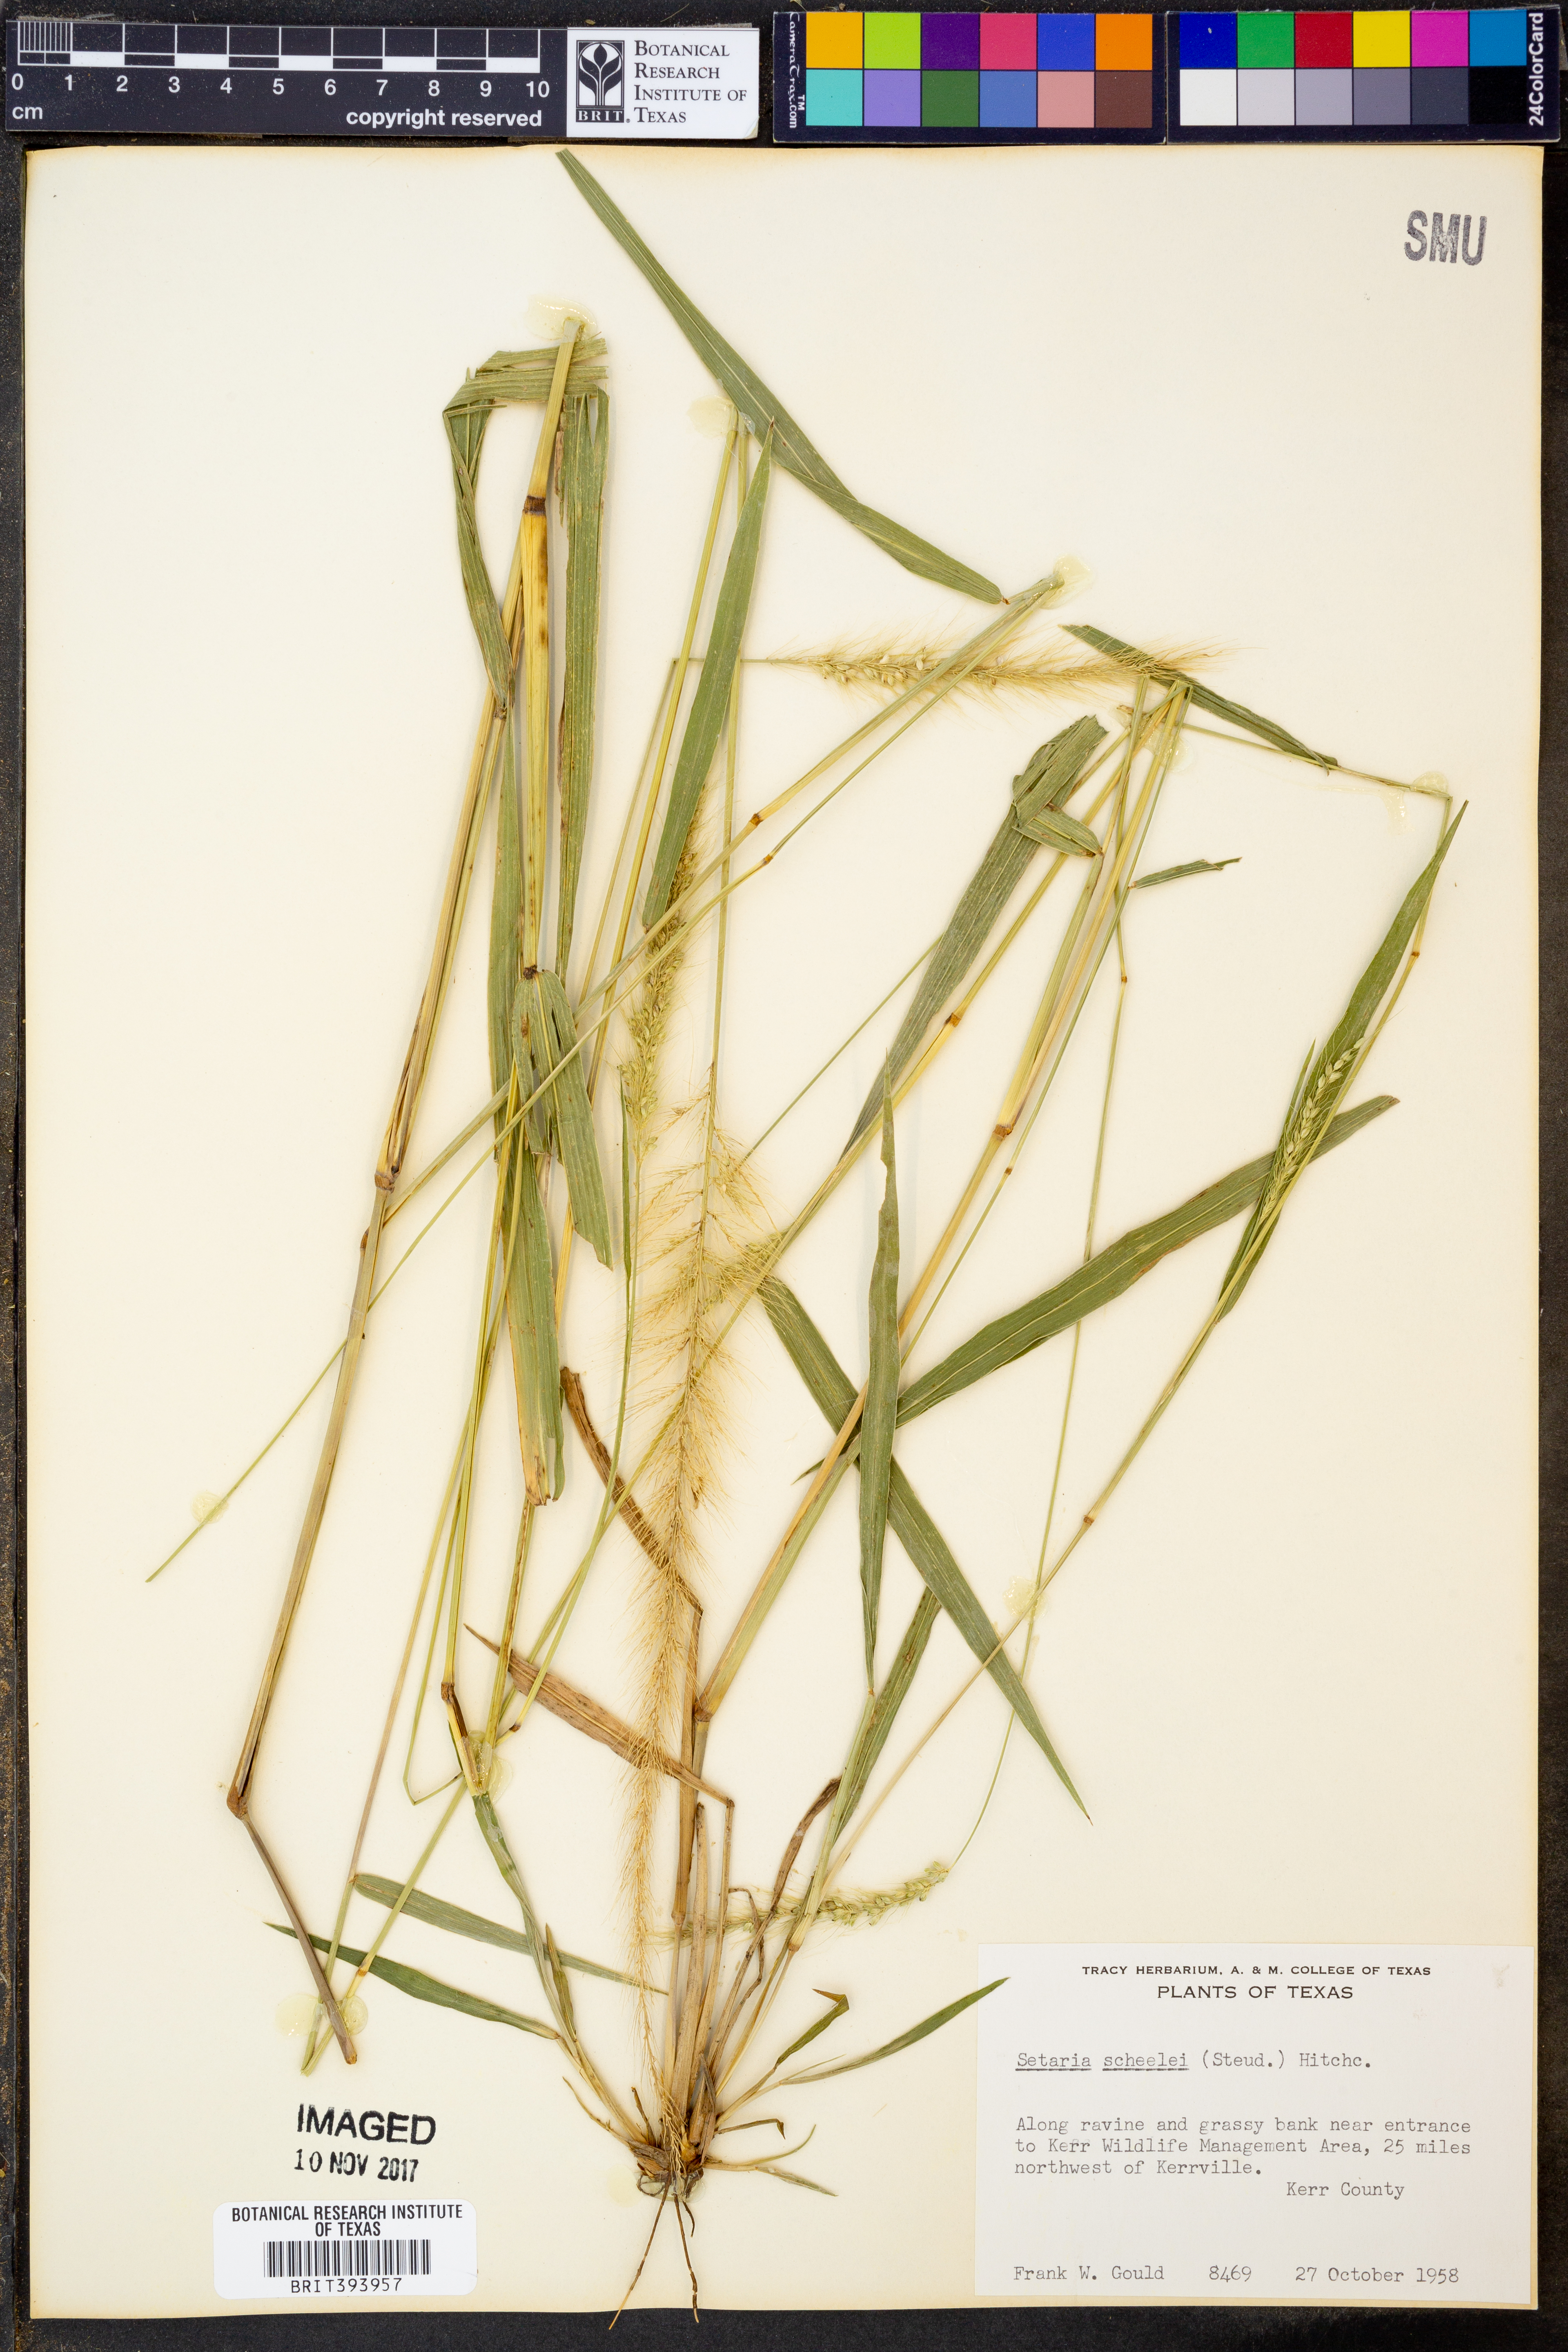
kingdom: Plantae
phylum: Tracheophyta
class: Liliopsida
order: Poales
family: Poaceae
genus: Setaria
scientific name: Setaria scheelei
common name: Southwestern bristle grass
